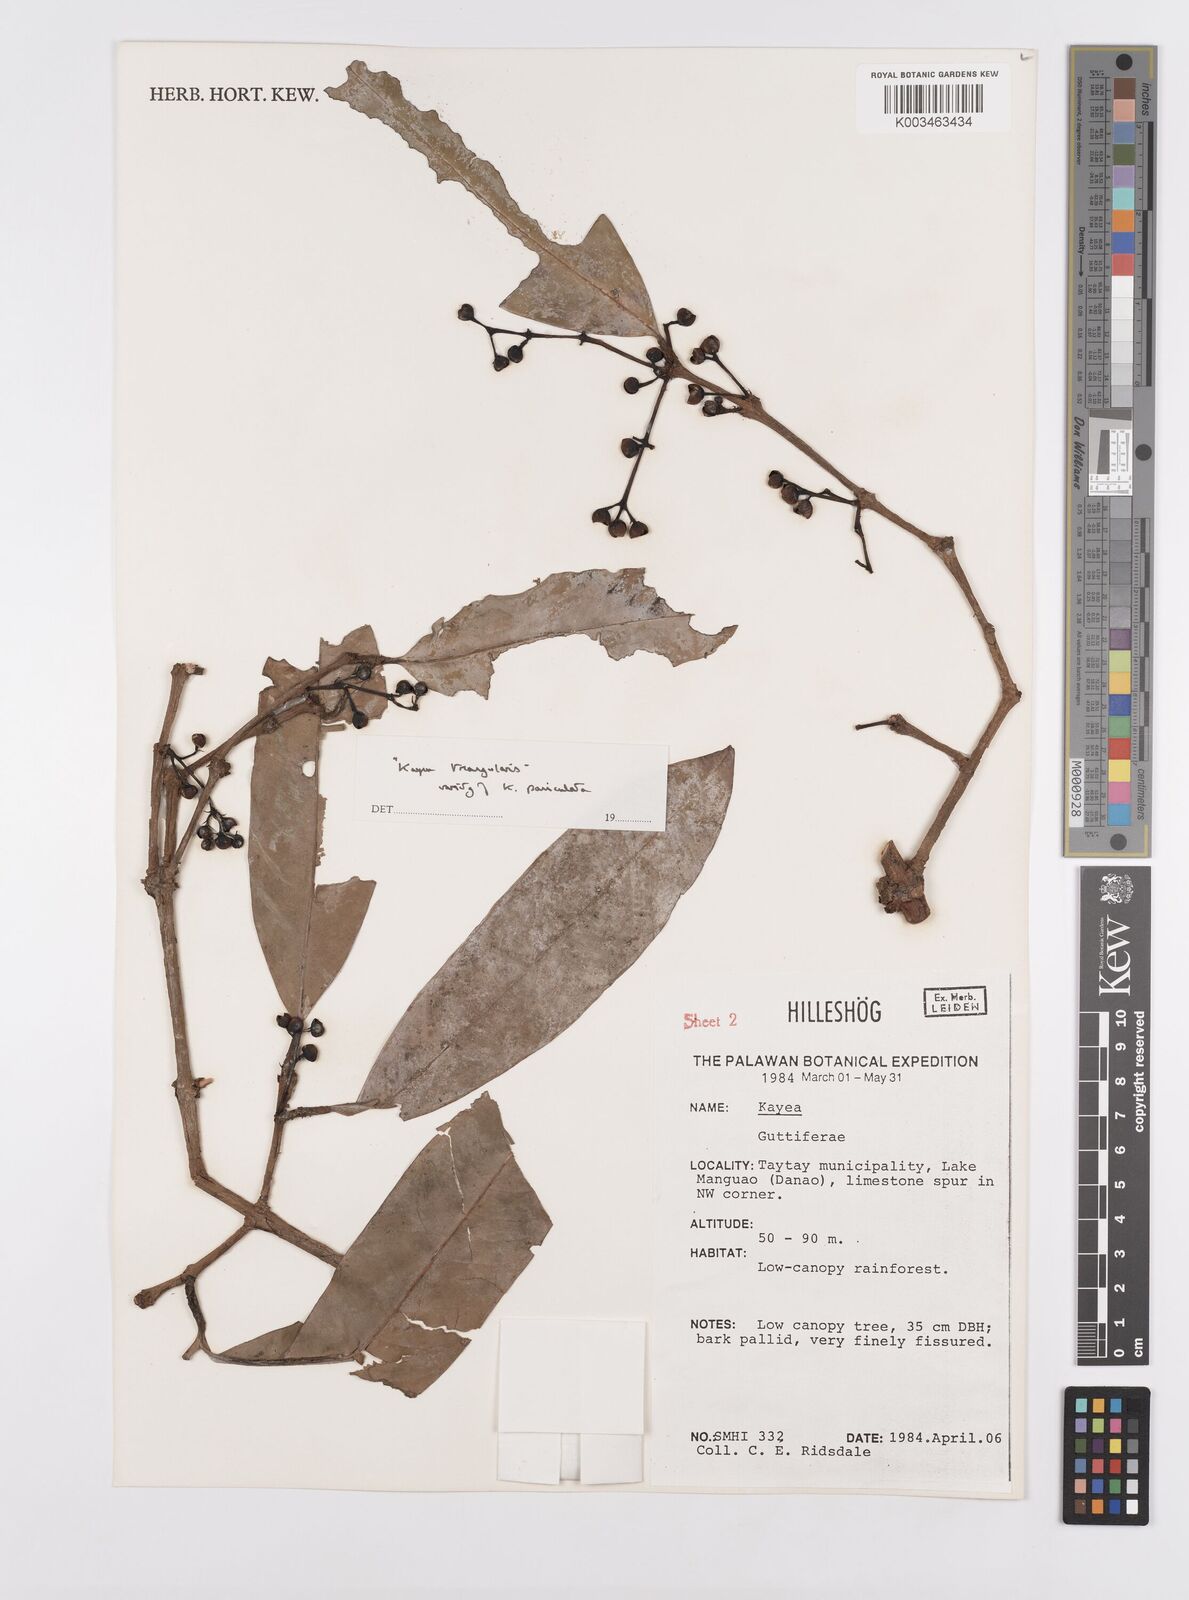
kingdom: Plantae
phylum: Tracheophyta
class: Magnoliopsida
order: Malpighiales
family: Calophyllaceae
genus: Kayea
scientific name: Kayea
